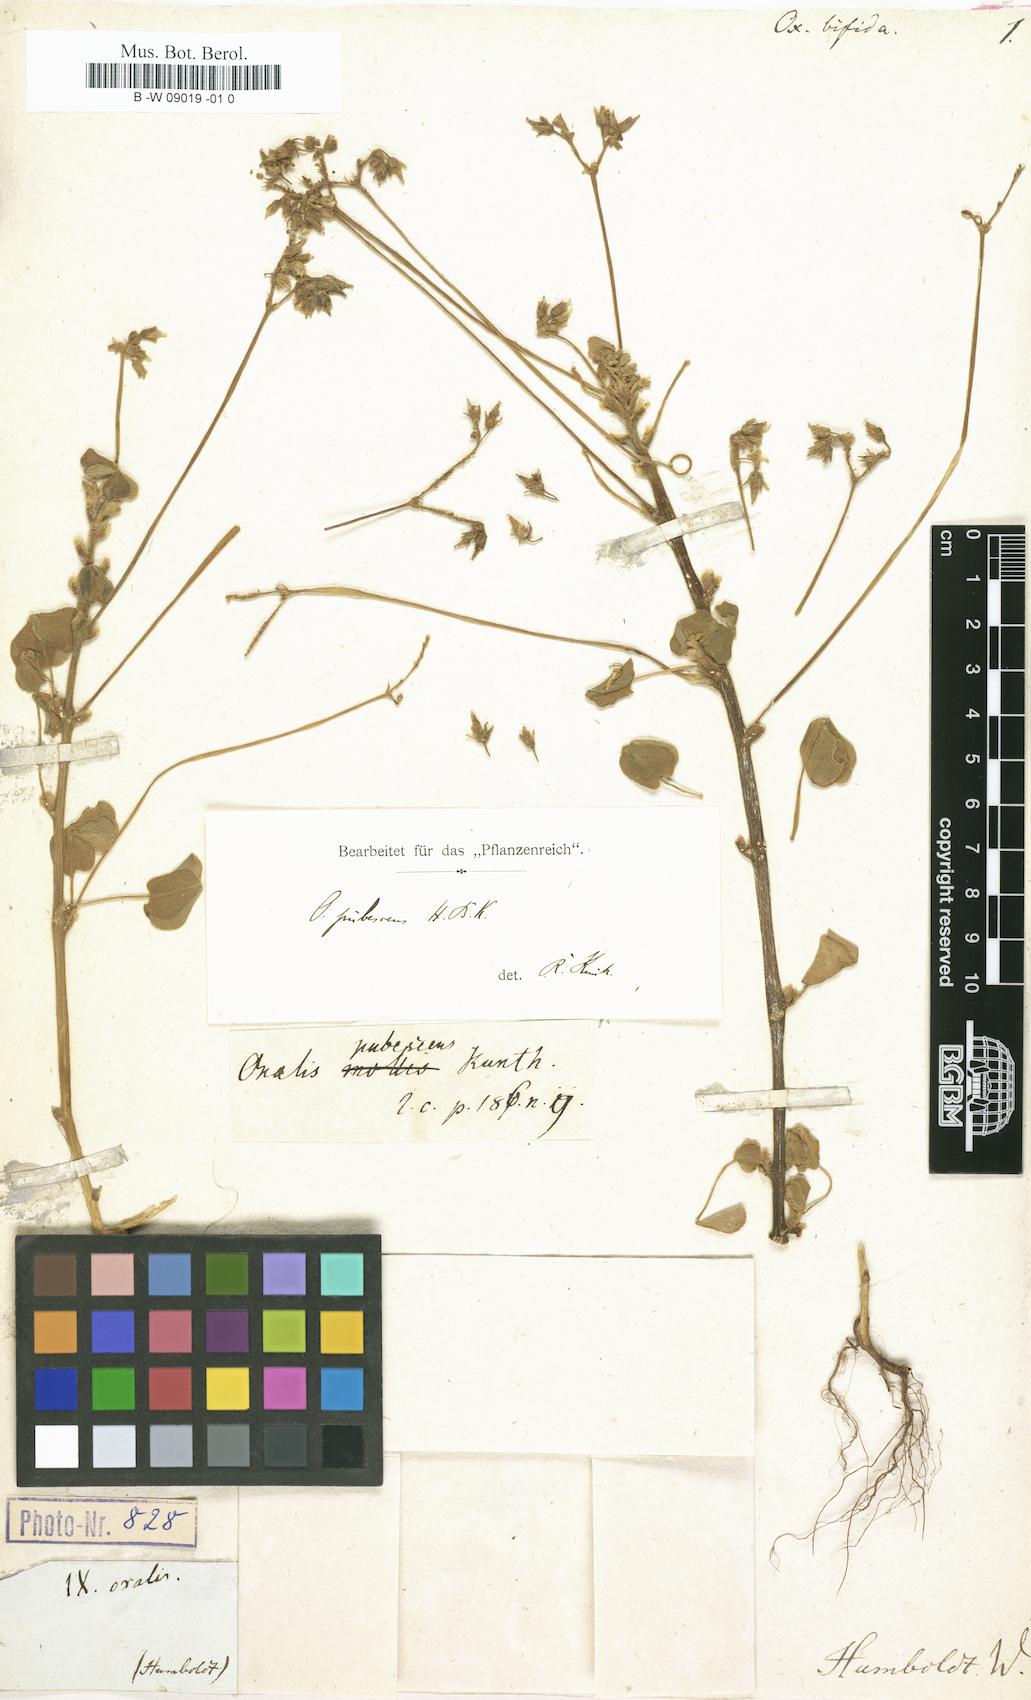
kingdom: Plantae
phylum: Tracheophyta
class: Magnoliopsida
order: Oxalidales
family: Oxalidaceae
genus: Oxalis
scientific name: Oxalis spiralis
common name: Spiral sorrel
